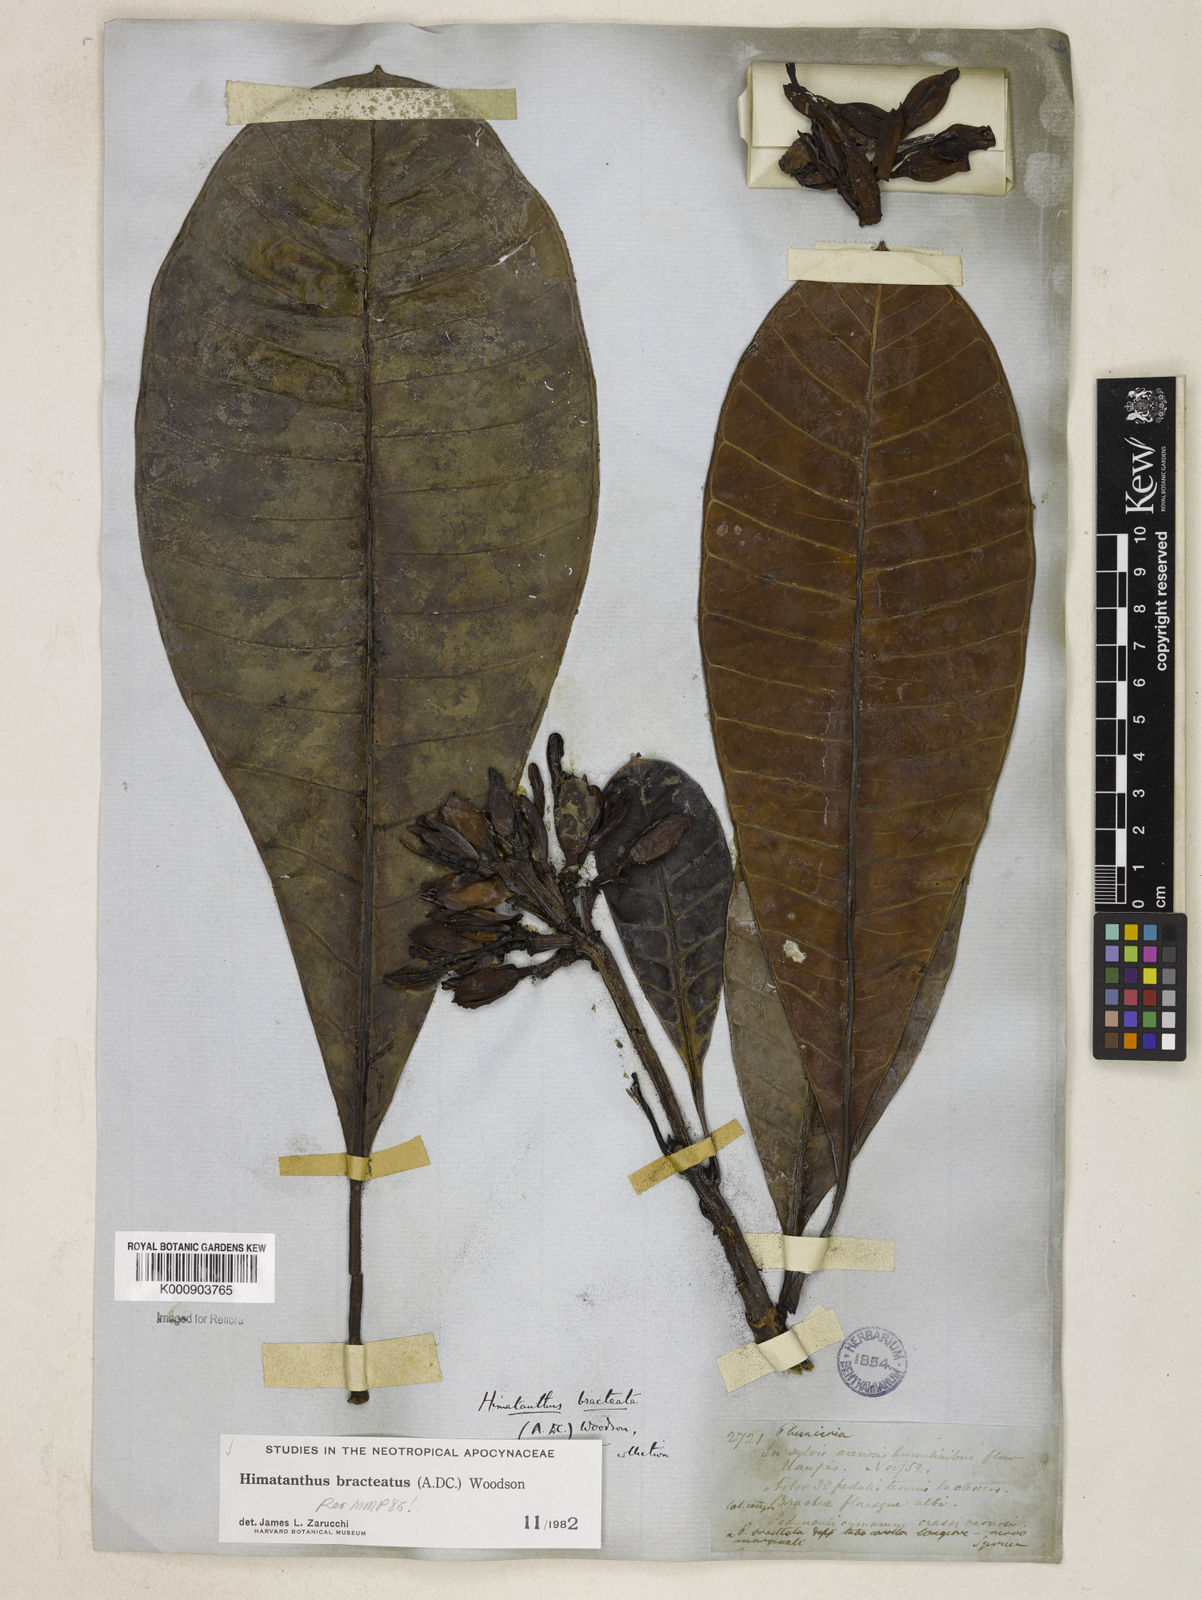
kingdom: Plantae
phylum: Tracheophyta
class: Magnoliopsida
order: Gentianales
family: Apocynaceae
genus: Himatanthus
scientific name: Himatanthus bracteatus
